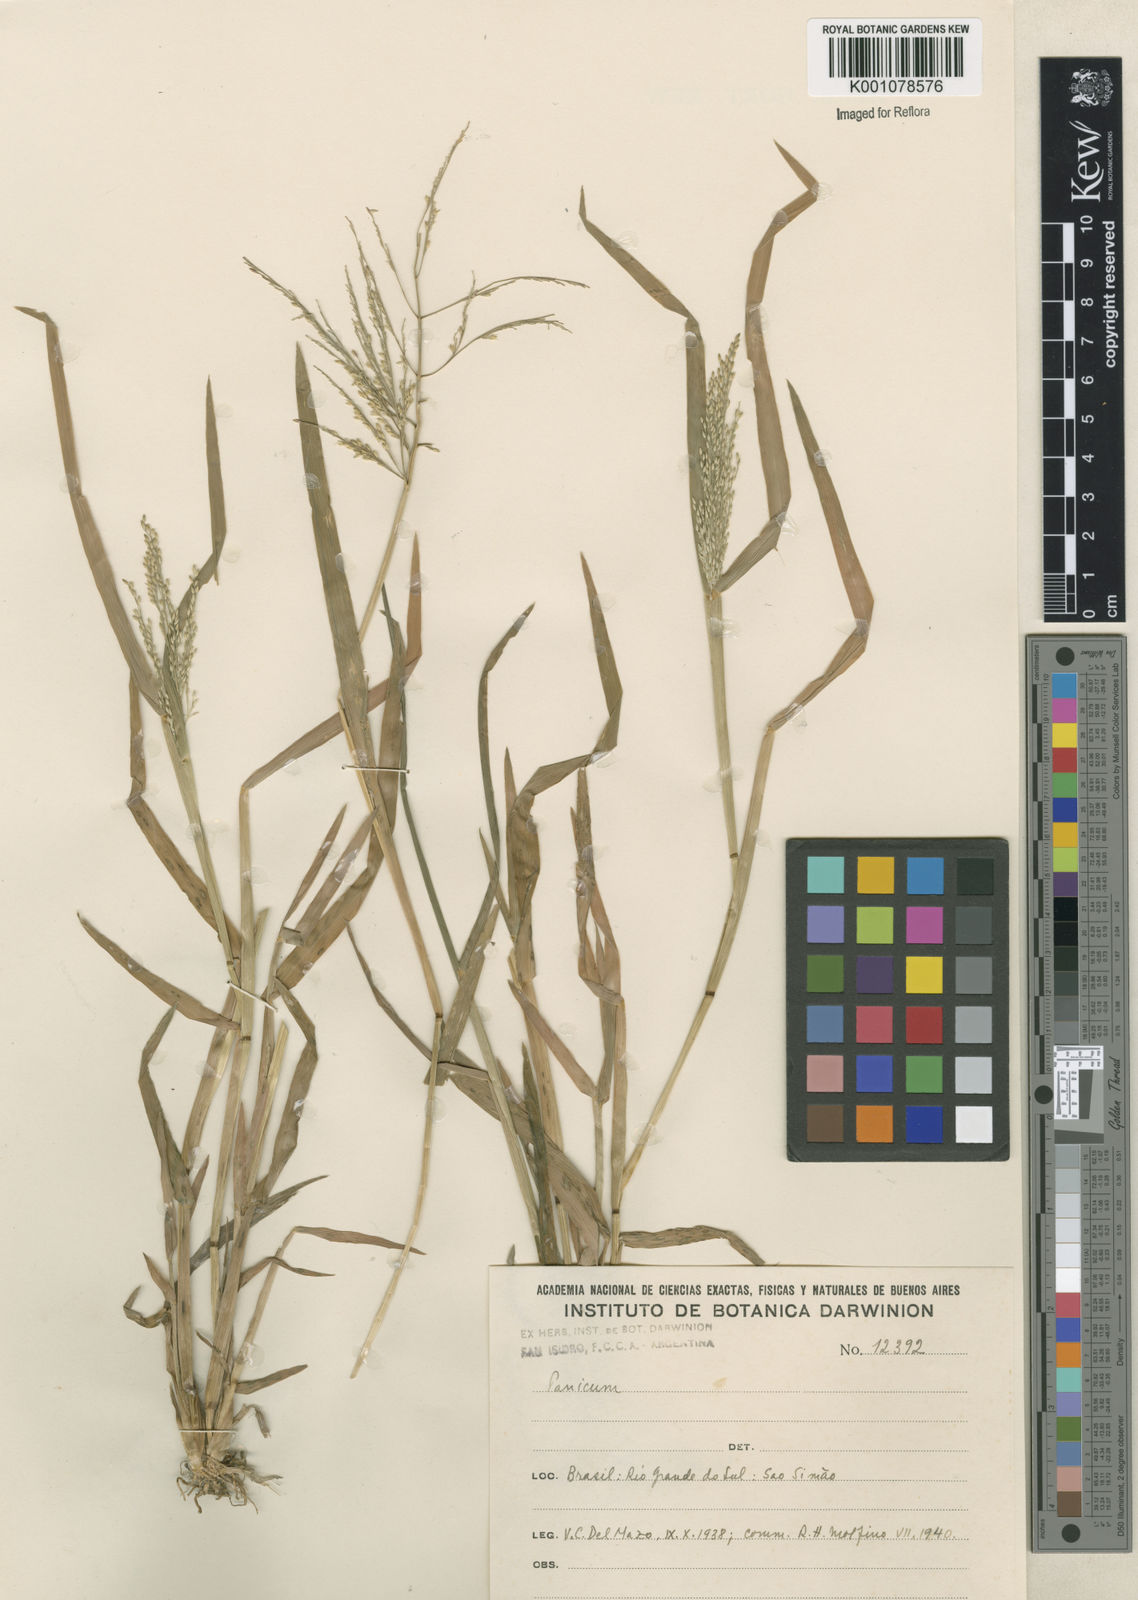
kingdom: Plantae
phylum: Tracheophyta
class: Liliopsida
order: Poales
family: Poaceae
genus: Panicum
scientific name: Panicum dichotomiflorum
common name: Autumn millet
